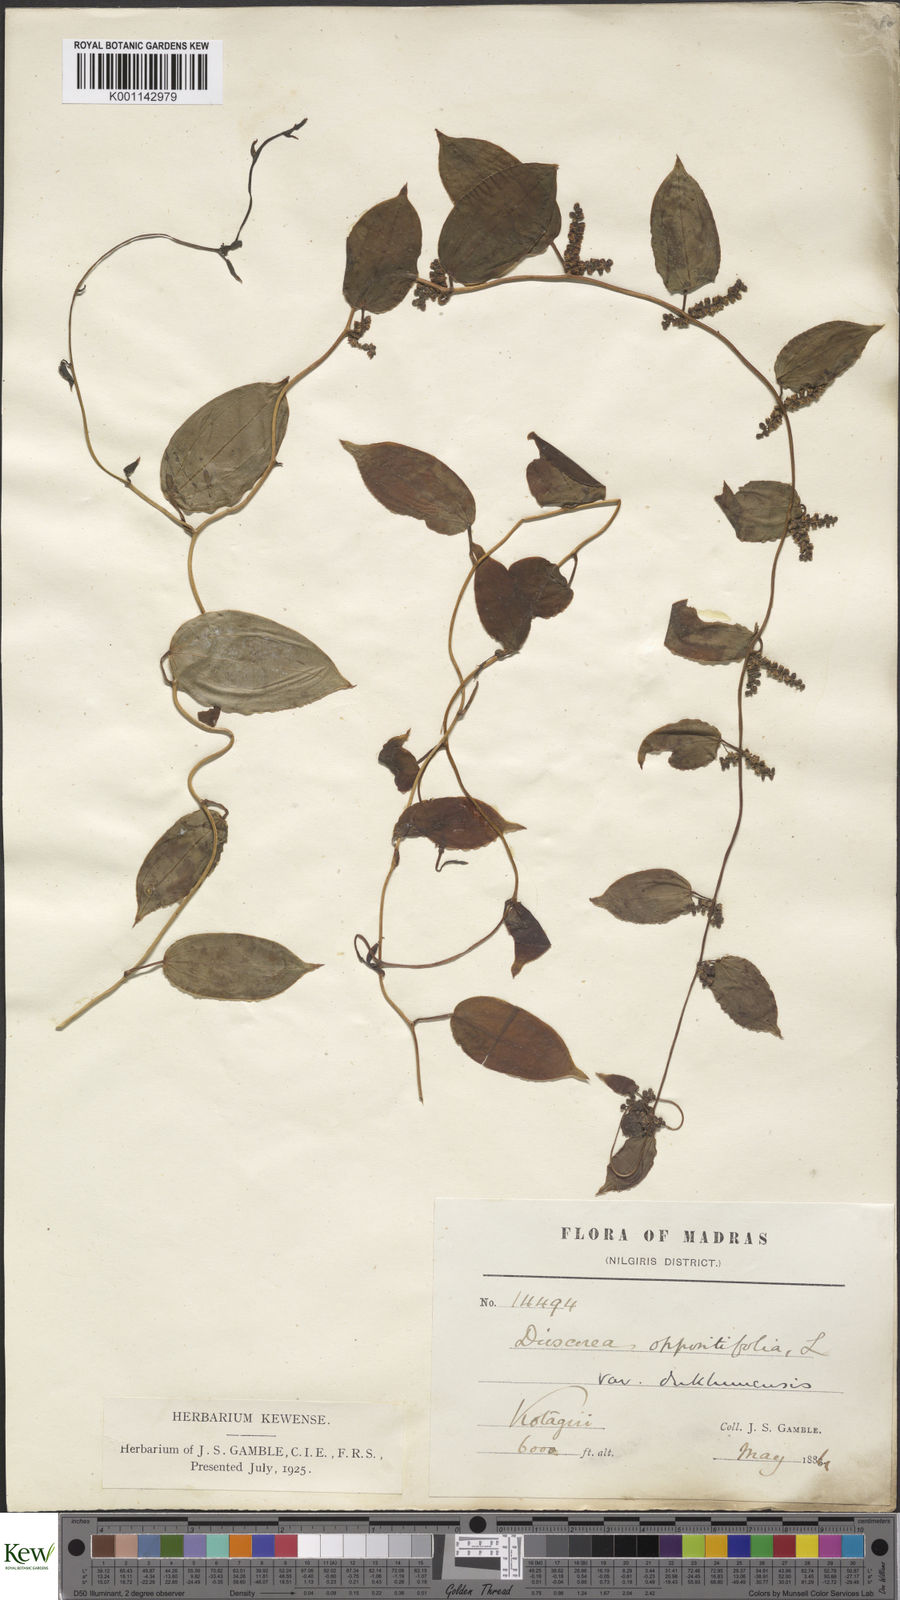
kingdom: Plantae
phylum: Tracheophyta
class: Liliopsida
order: Dioscoreales
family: Dioscoreaceae
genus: Dioscorea
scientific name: Dioscorea oppositifolia
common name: Chinese yam
